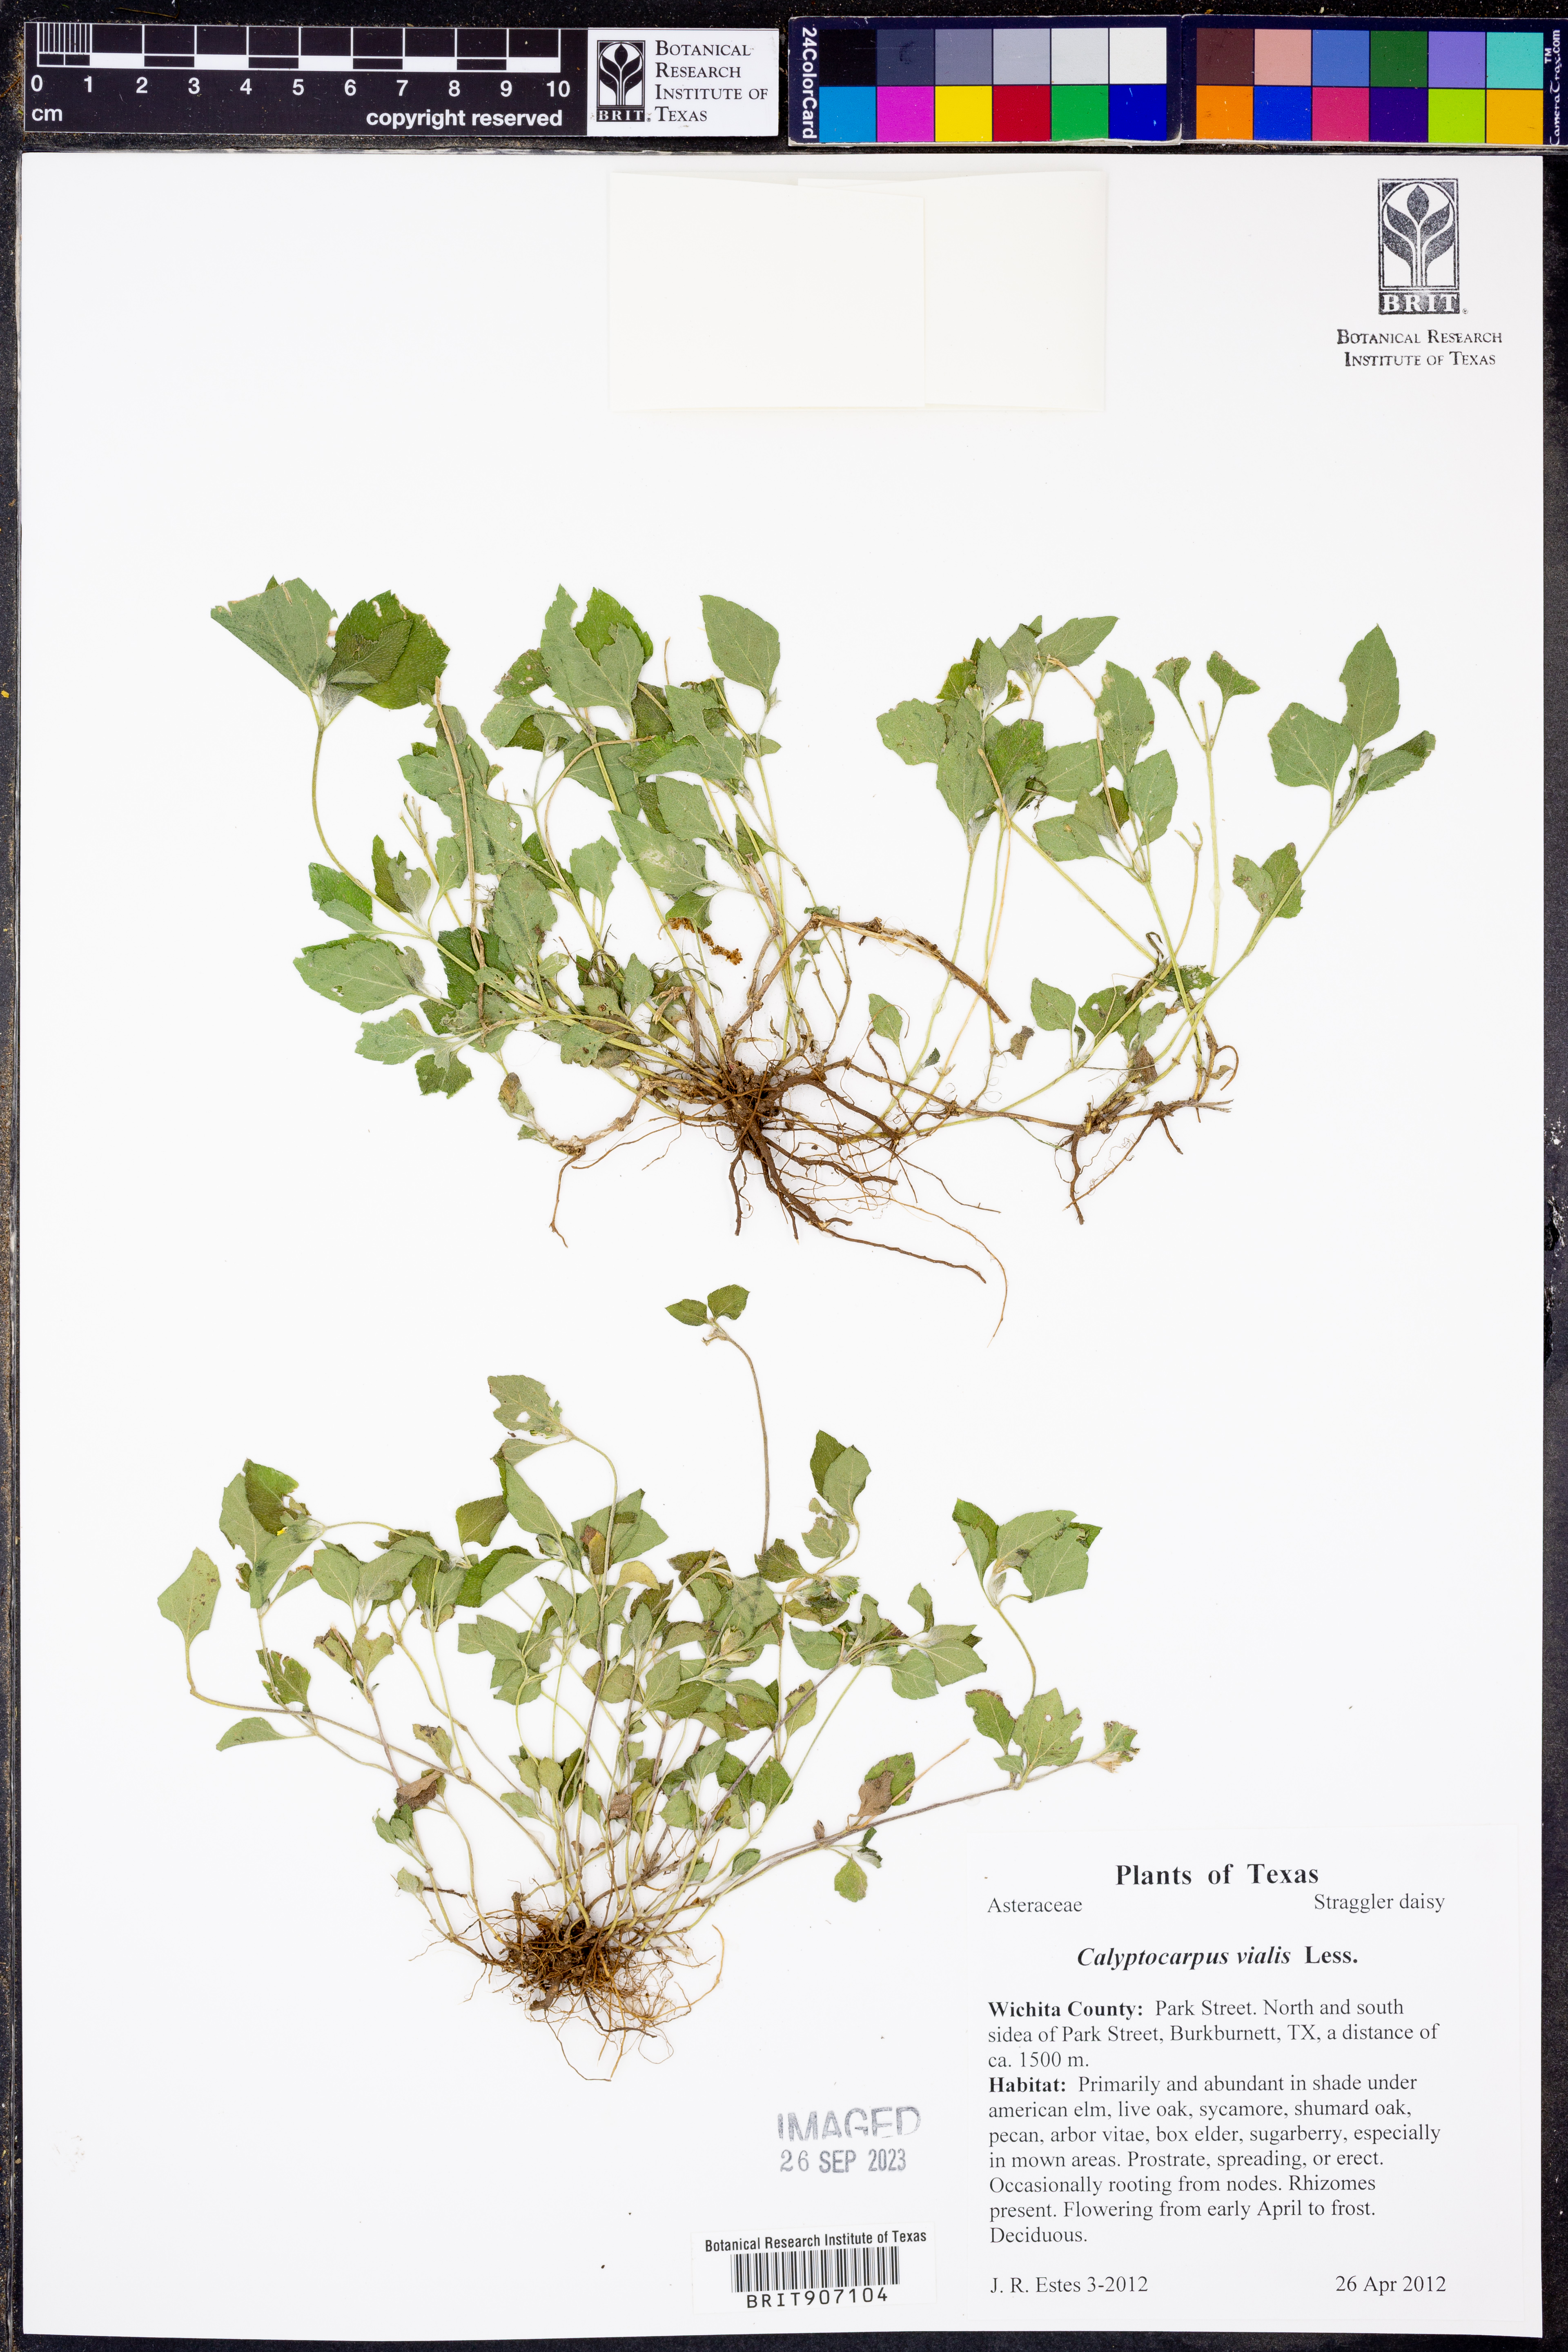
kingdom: Plantae
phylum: Tracheophyta
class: Magnoliopsida
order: Asterales
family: Asteraceae
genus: Calyptocarpus
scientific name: Calyptocarpus vialis
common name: Straggler daisy
